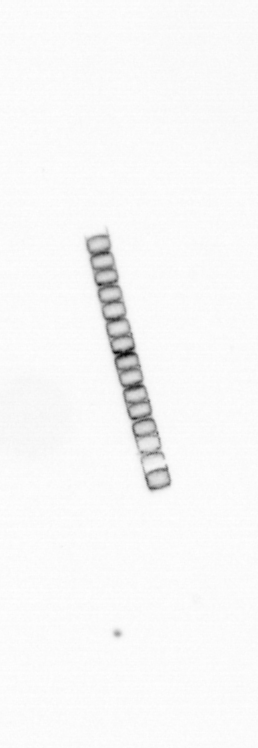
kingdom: Chromista
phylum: Ochrophyta
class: Bacillariophyceae
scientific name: Bacillariophyceae
